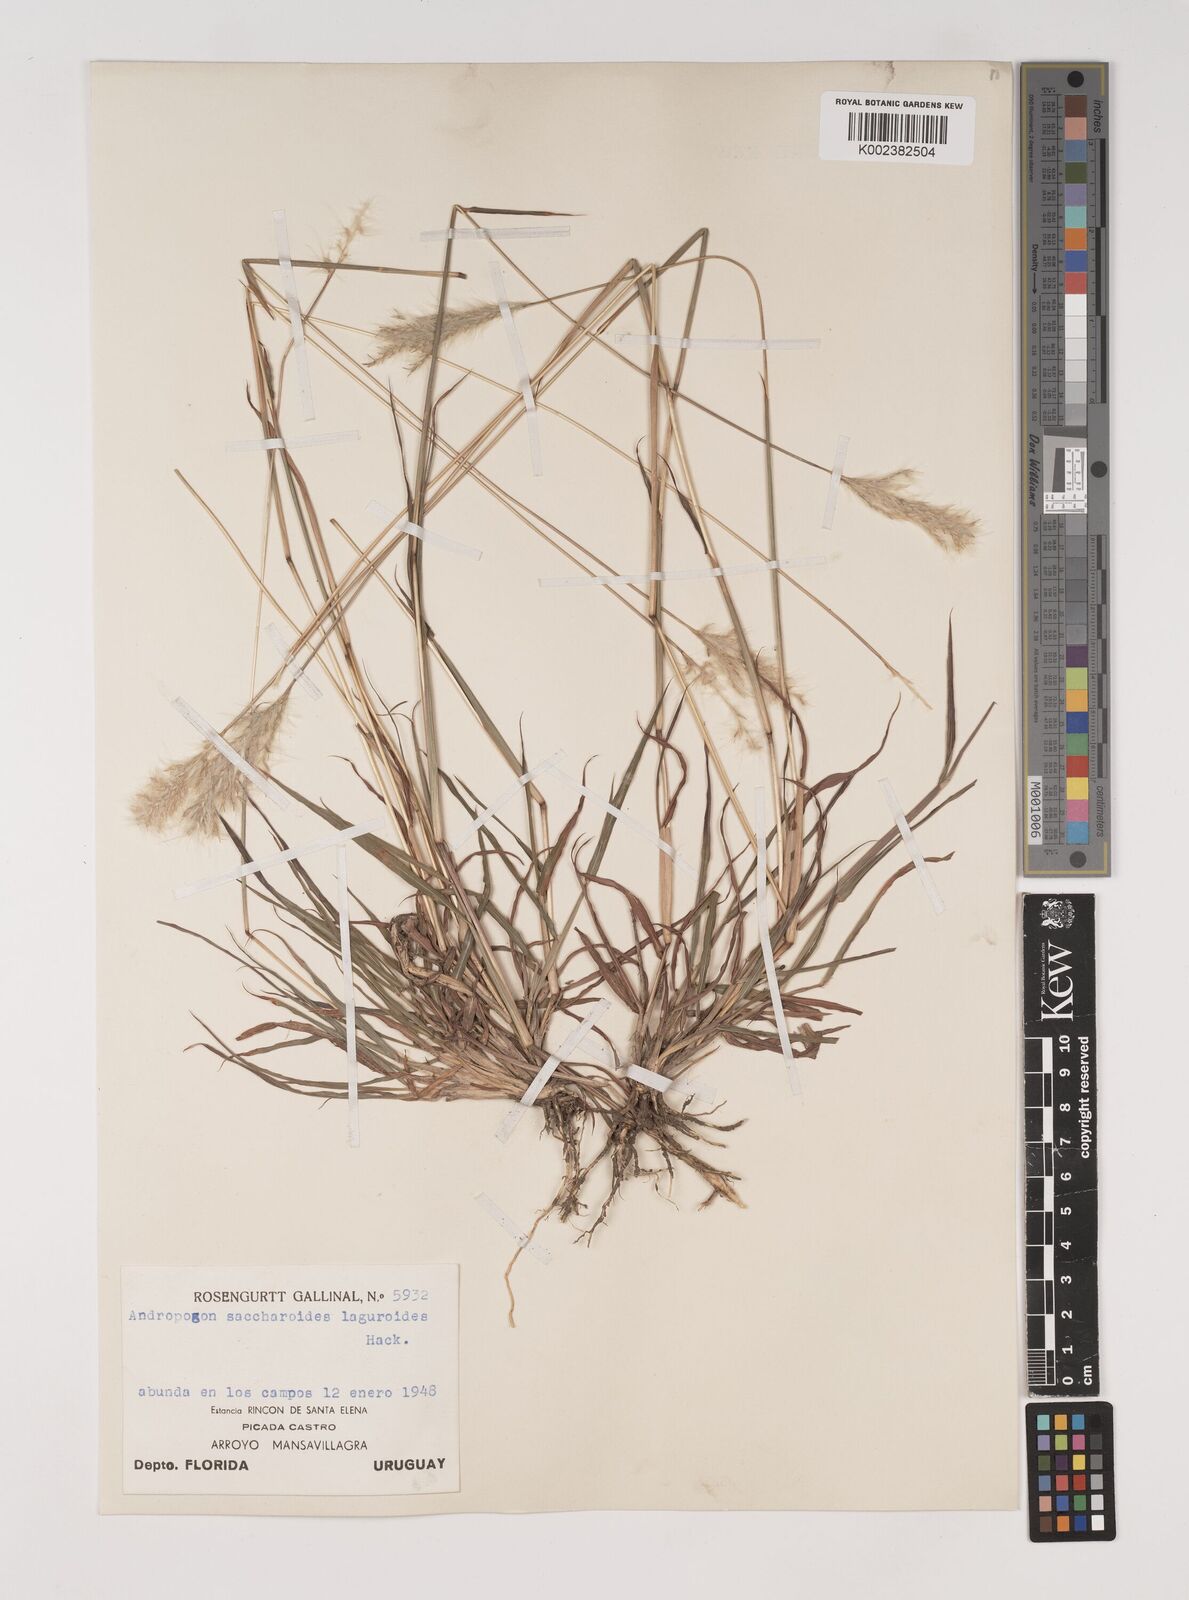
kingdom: Plantae
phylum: Tracheophyta
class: Liliopsida
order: Poales
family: Poaceae
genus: Bothriochloa
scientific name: Bothriochloa laguroides
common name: Silver bluestem
